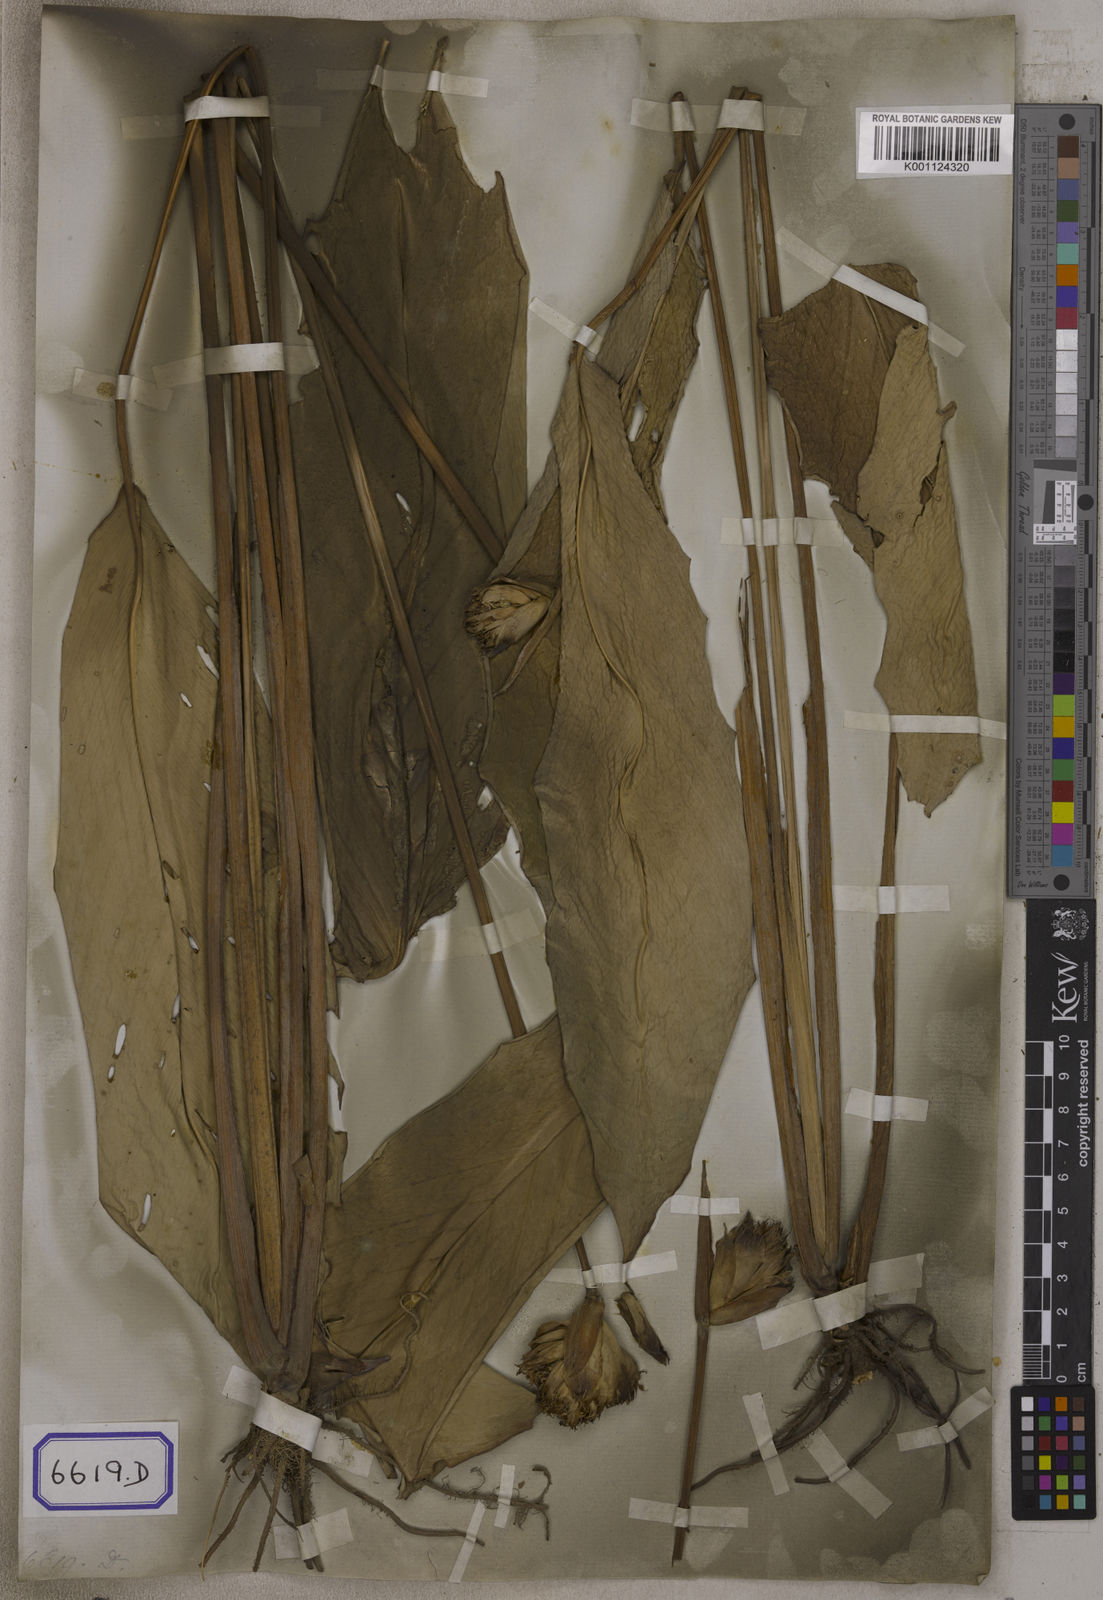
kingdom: Plantae
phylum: Tracheophyta
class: Liliopsida
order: Zingiberales
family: Marantaceae
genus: Phrynium
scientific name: Phrynium pubinerve
